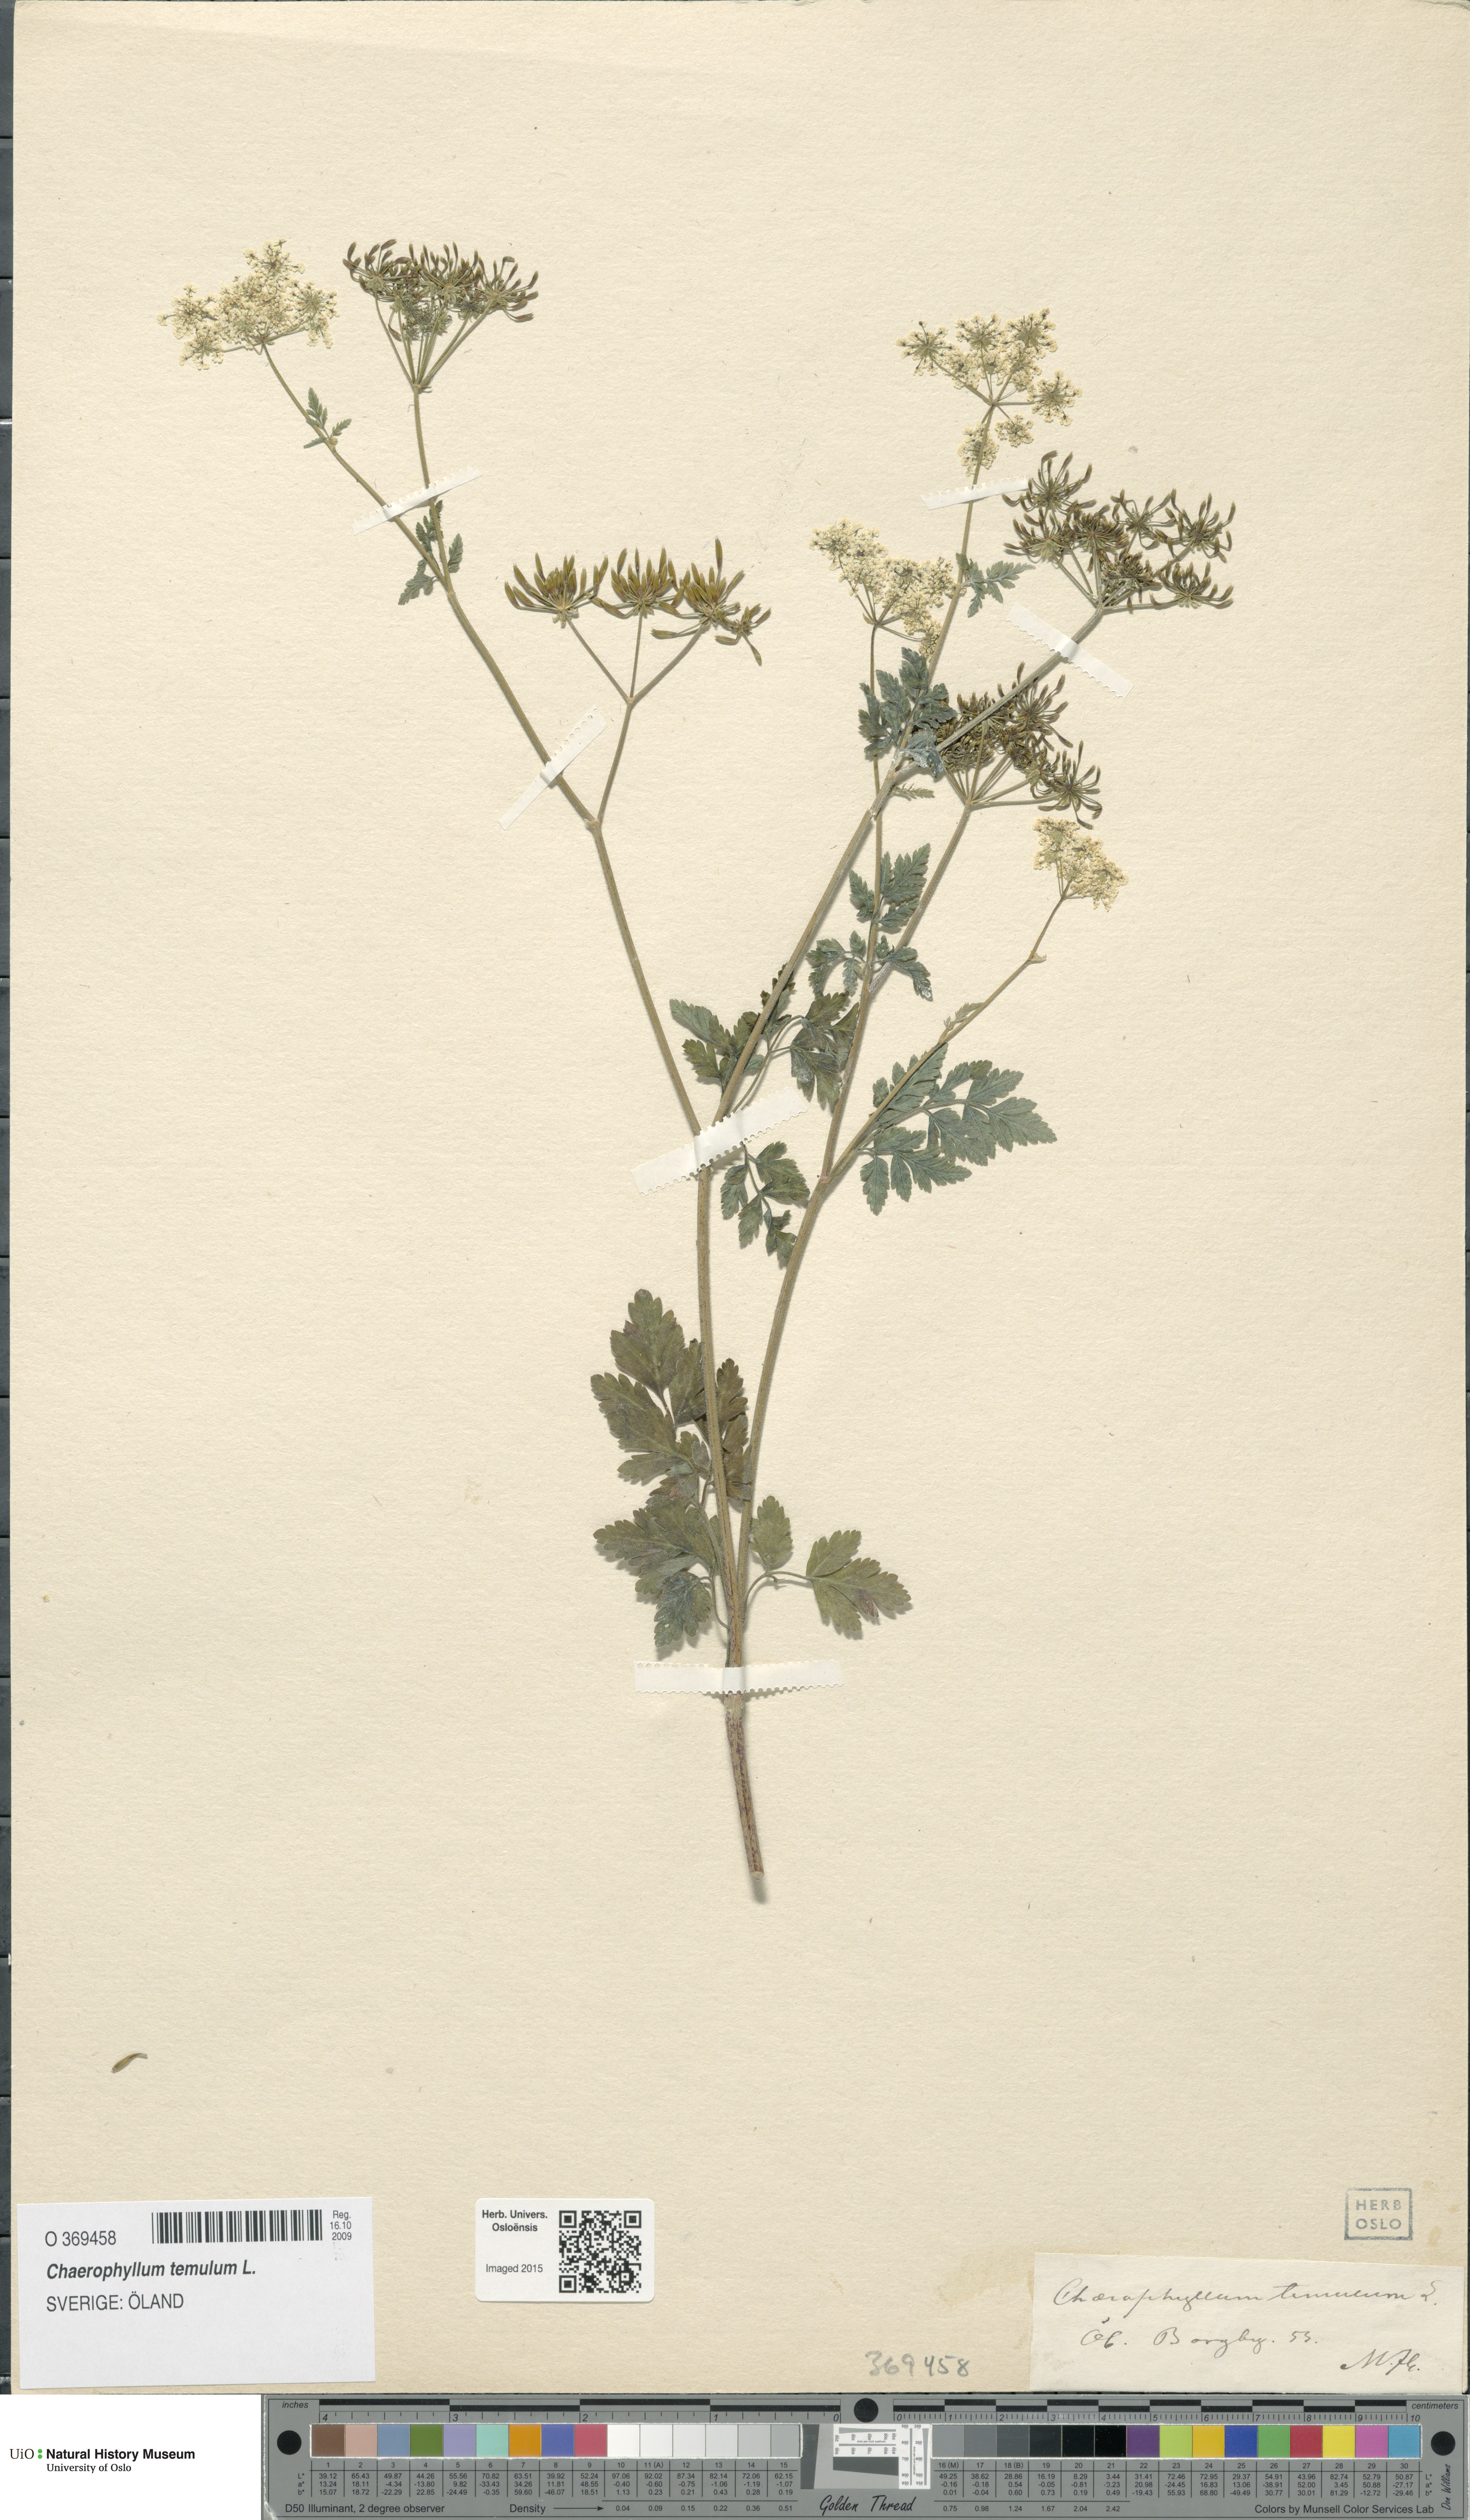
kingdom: Plantae
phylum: Tracheophyta
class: Magnoliopsida
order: Apiales
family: Apiaceae
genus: Chaerophyllum
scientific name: Chaerophyllum temulum
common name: Rough chervil
